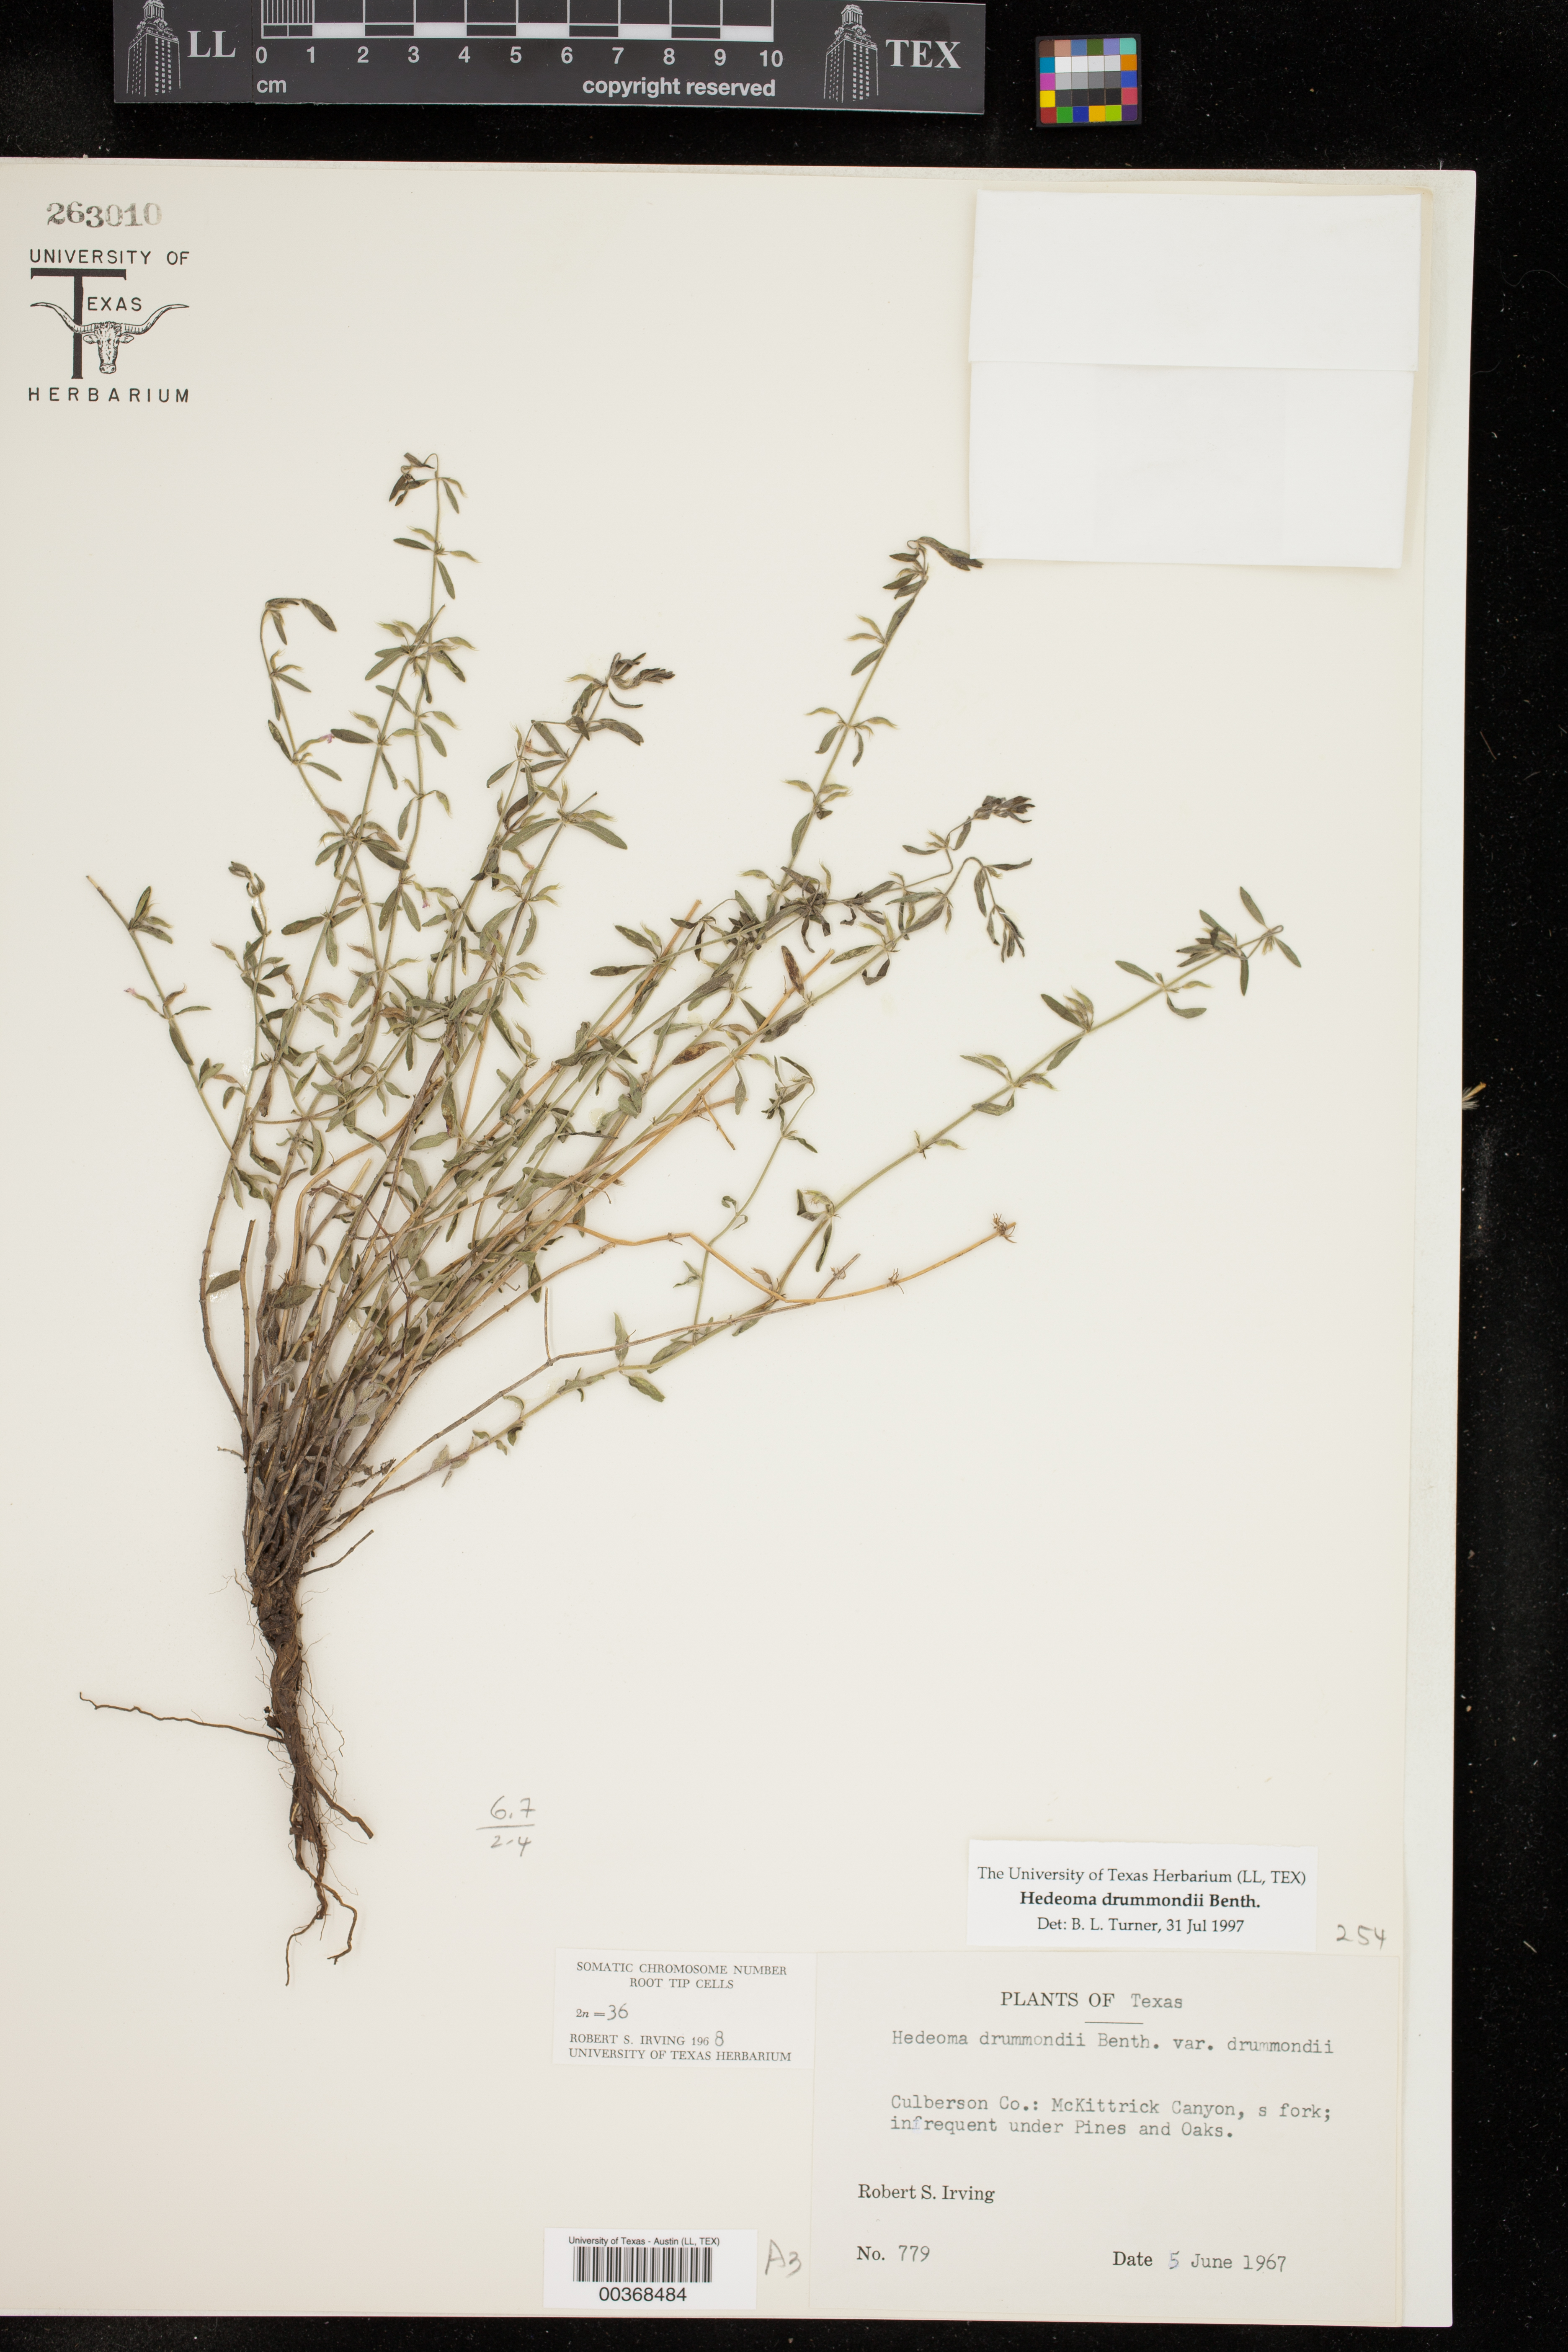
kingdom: Plantae
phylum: Tracheophyta
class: Magnoliopsida
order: Lamiales
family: Lamiaceae
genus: Hedeoma
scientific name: Hedeoma drummondii
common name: New mexico pennyroyal
